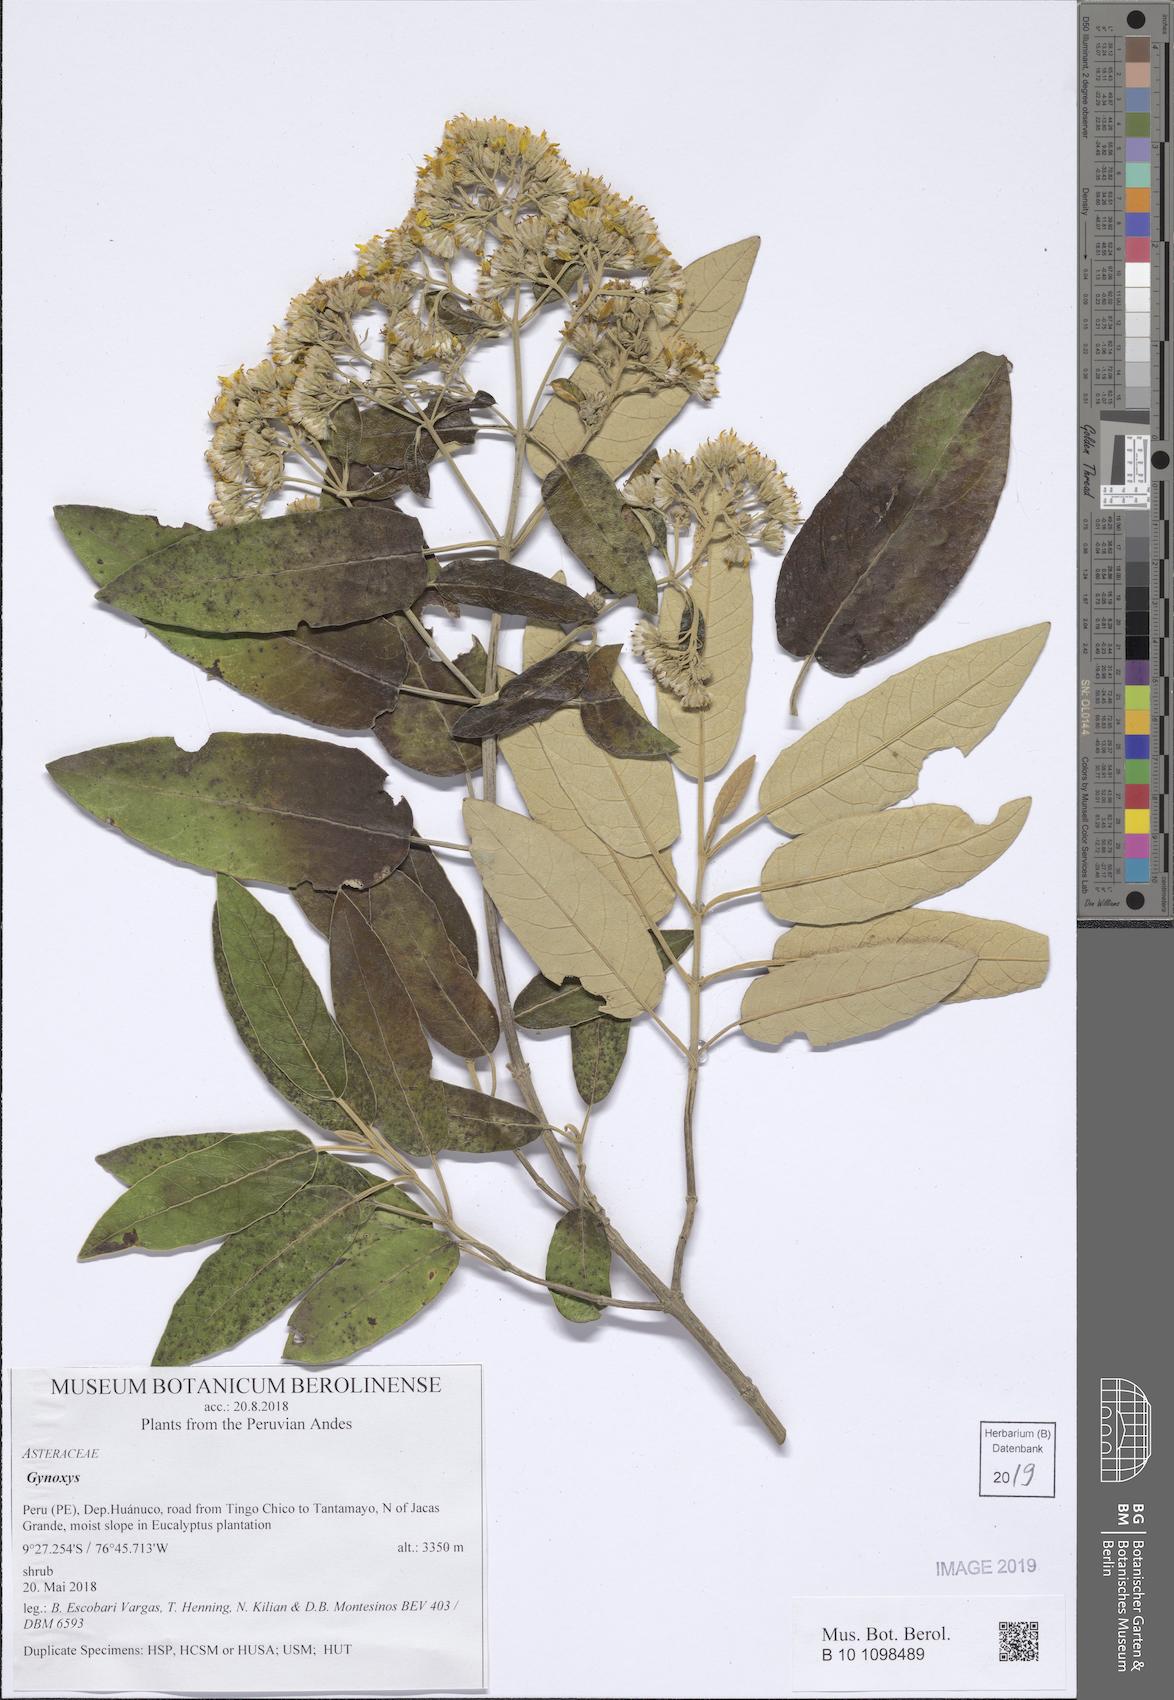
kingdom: Plantae
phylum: Tracheophyta
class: Magnoliopsida
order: Asterales
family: Asteraceae
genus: Gynoxys
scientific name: Gynoxys
